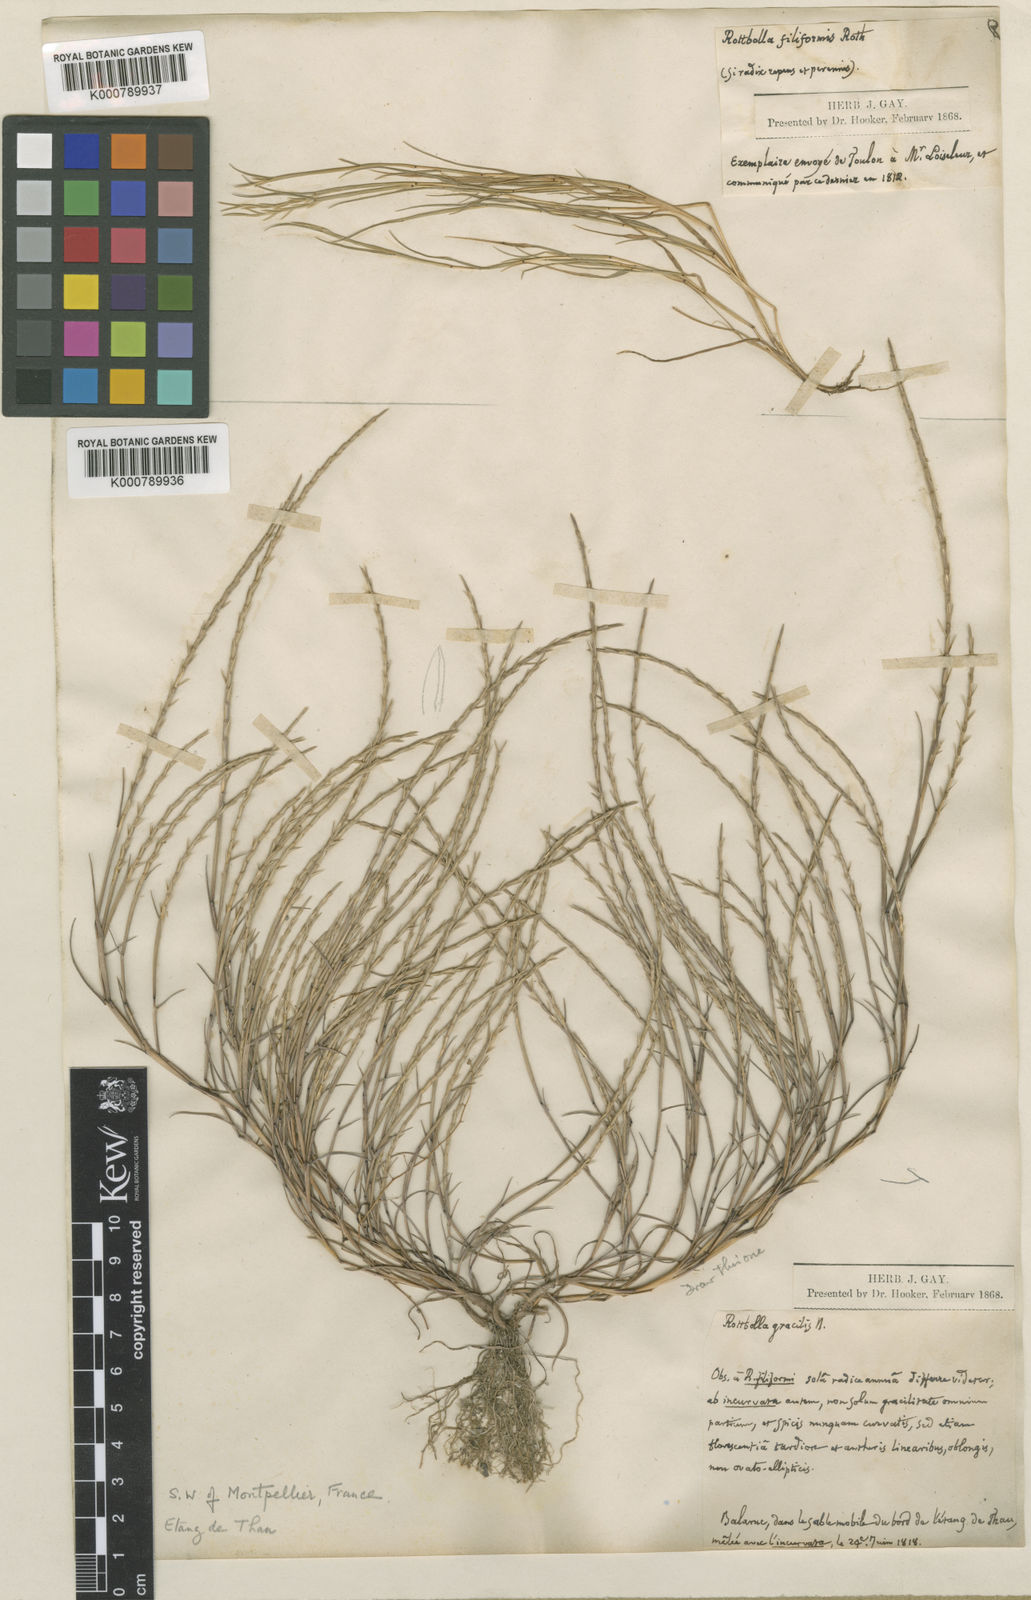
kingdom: Plantae
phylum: Tracheophyta
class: Liliopsida
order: Poales
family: Poaceae
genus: Parapholis
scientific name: Parapholis filiformis
